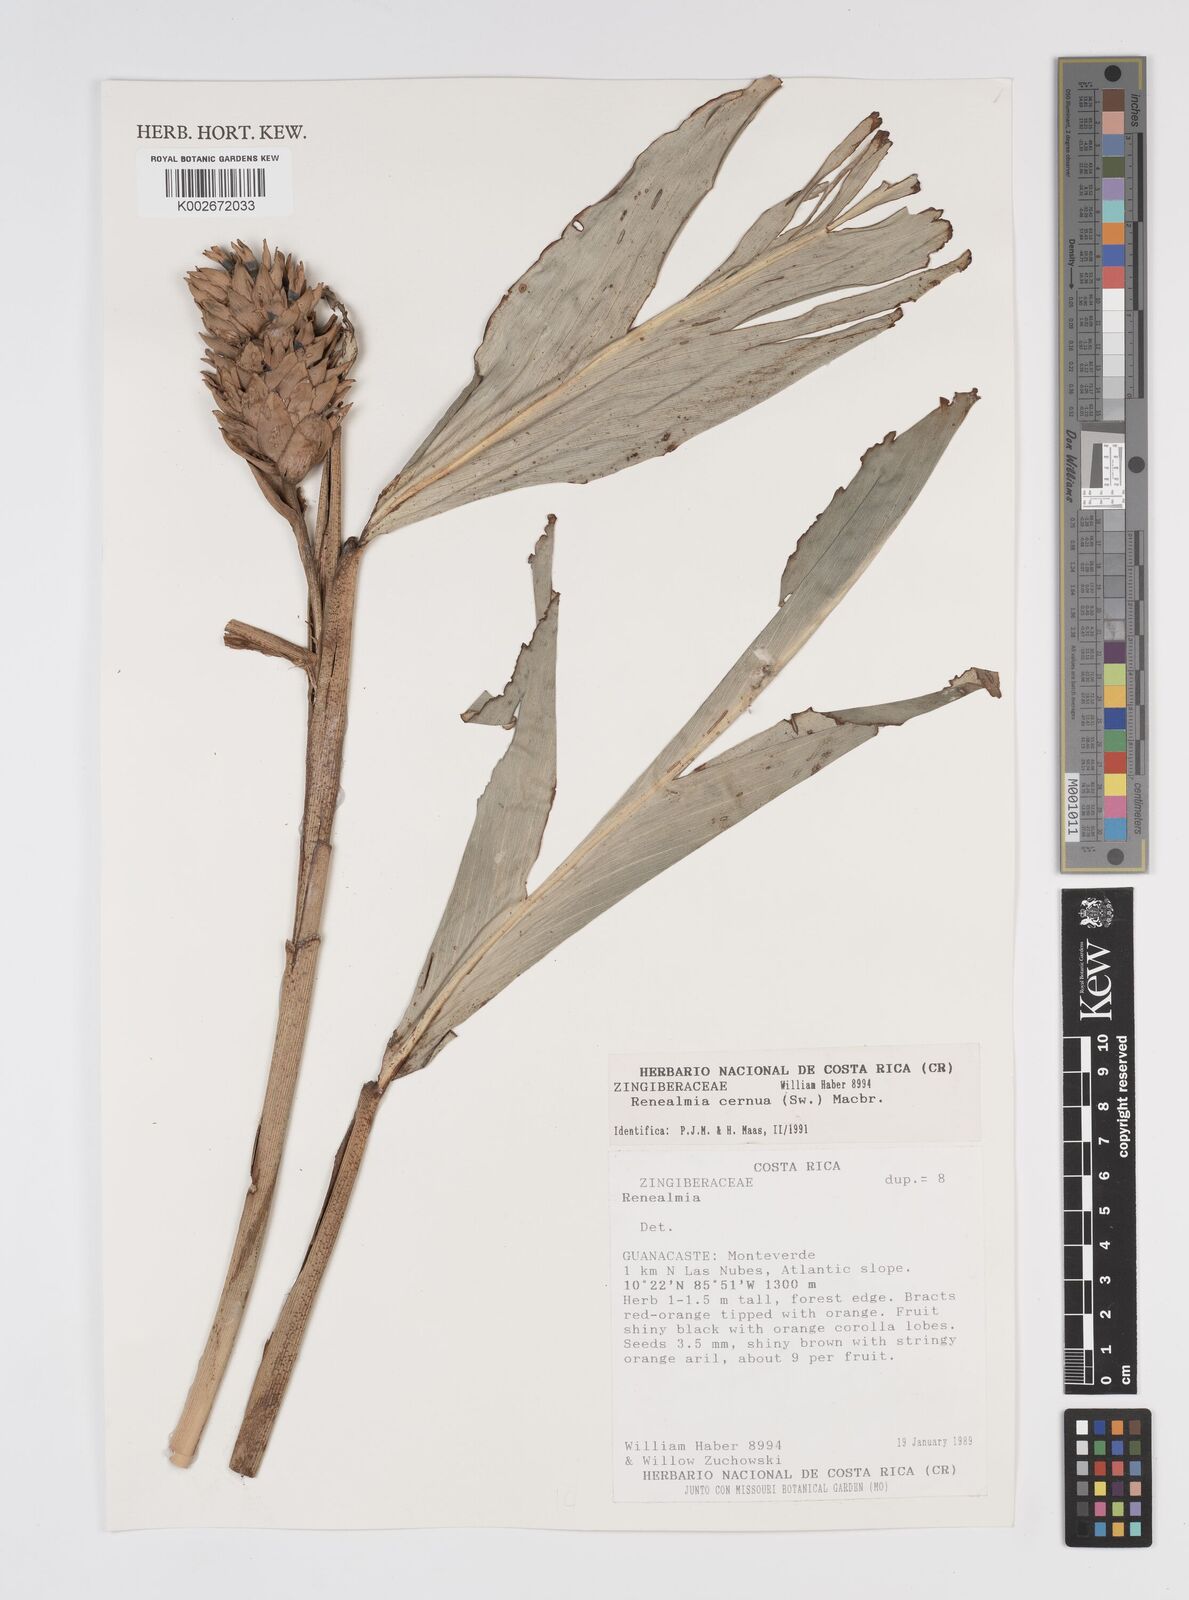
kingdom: Plantae
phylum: Tracheophyta
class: Liliopsida
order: Zingiberales
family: Zingiberaceae
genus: Renealmia
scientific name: Renealmia cernua
